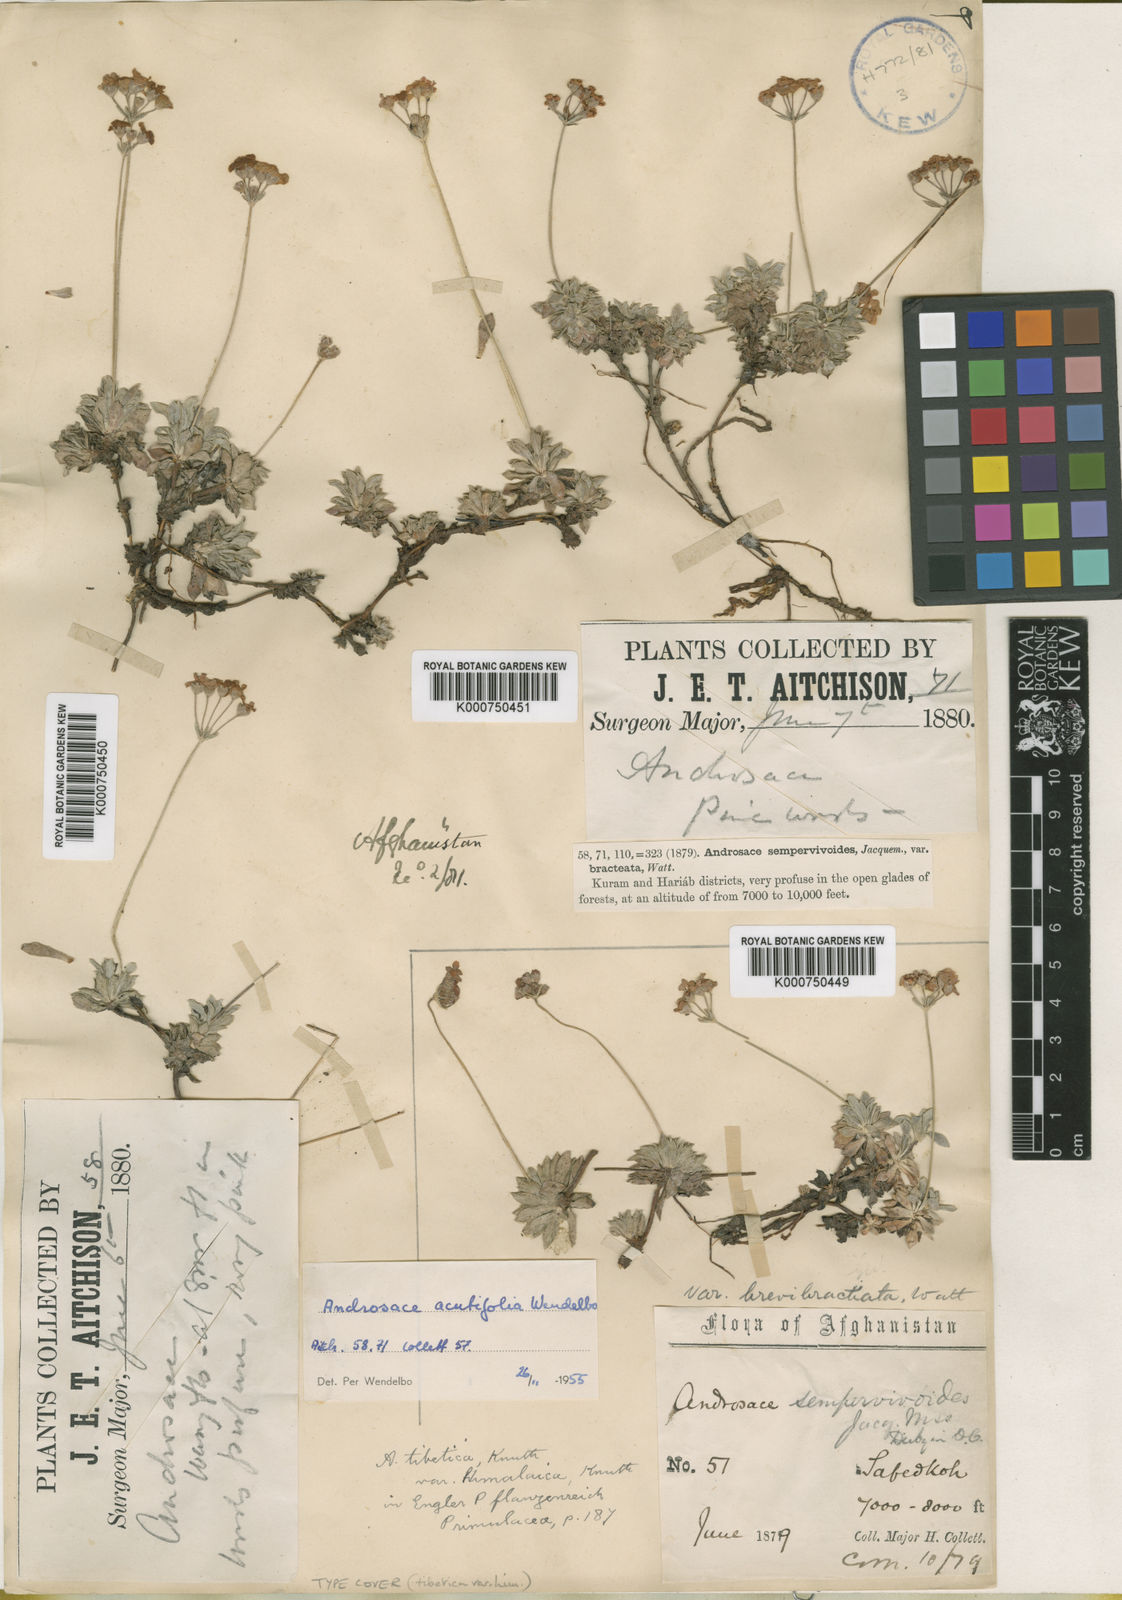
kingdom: Plantae
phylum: Tracheophyta
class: Magnoliopsida
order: Ericales
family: Primulaceae
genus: Androsace
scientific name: Androsace tibetica
